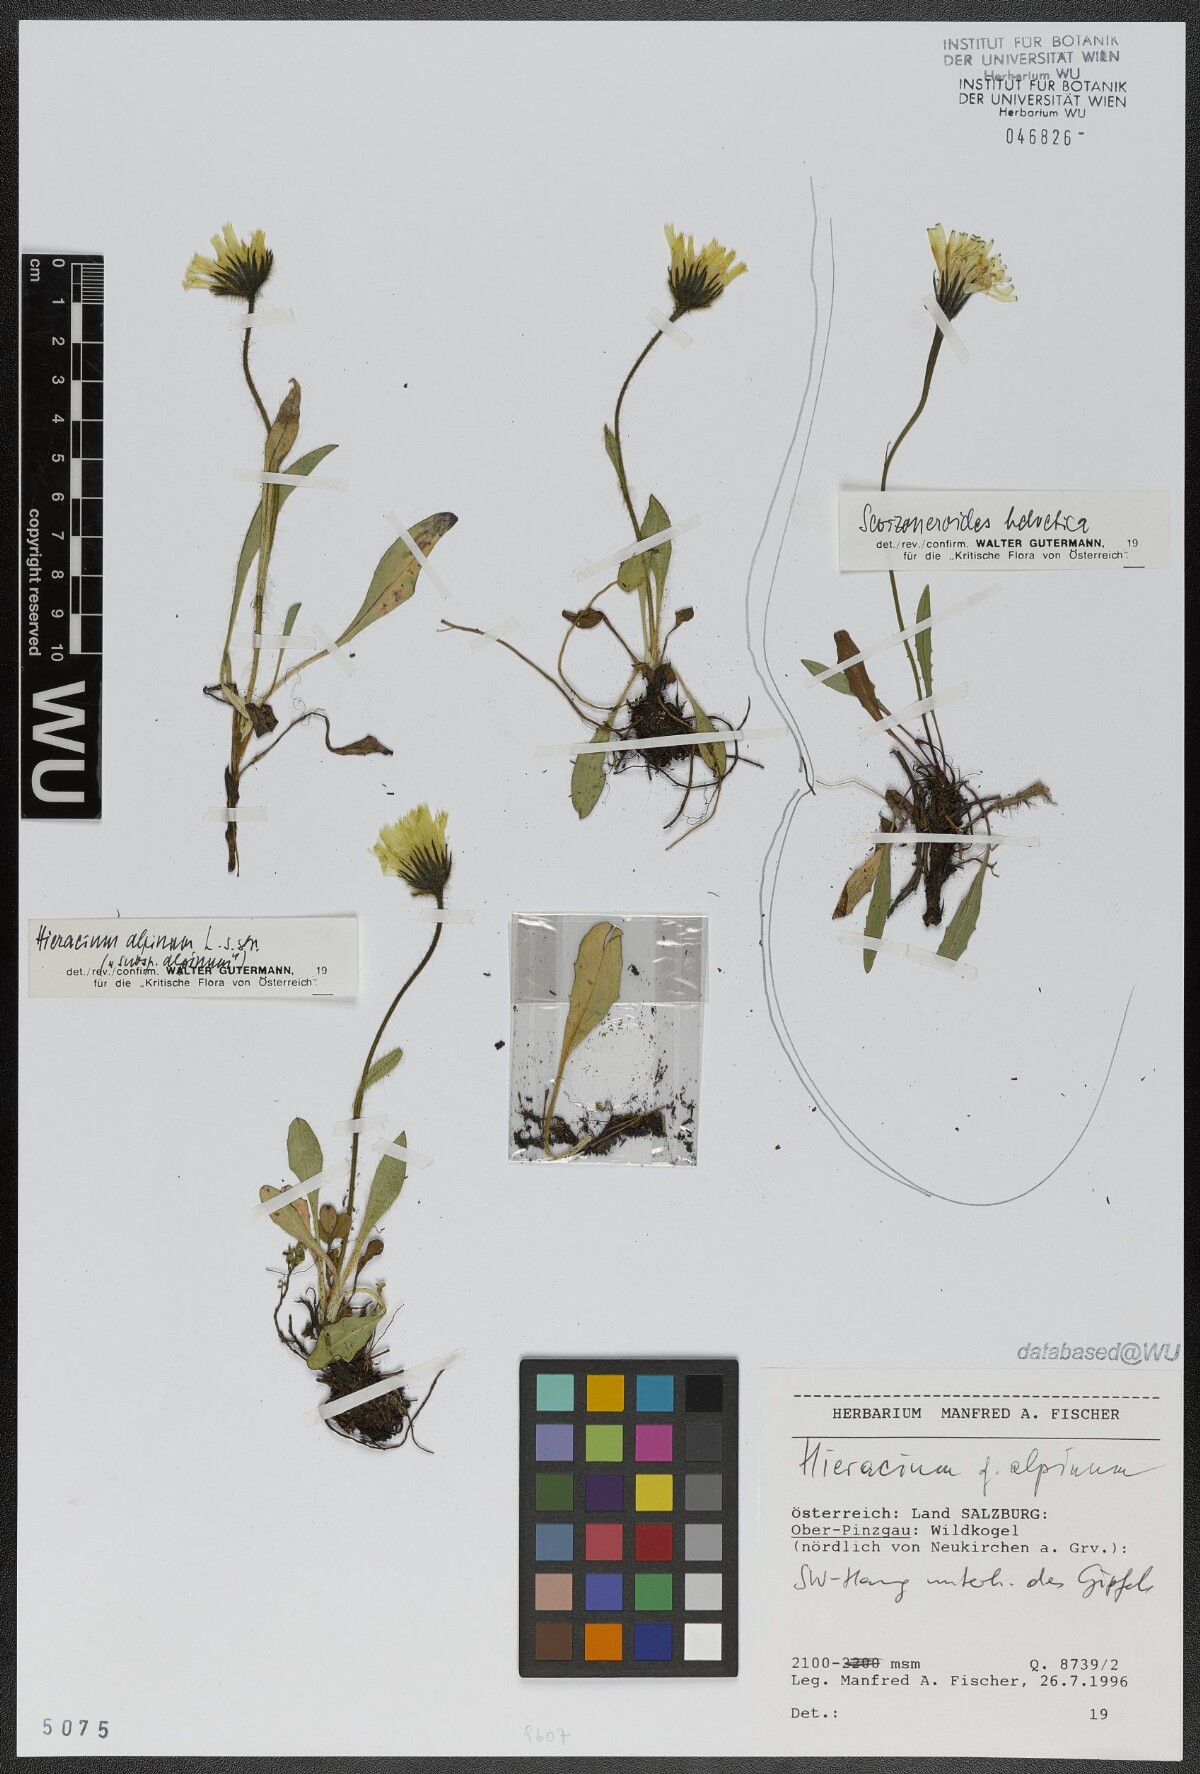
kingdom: Plantae
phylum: Tracheophyta
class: Magnoliopsida
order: Asterales
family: Asteraceae
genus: Hieracium
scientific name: Hieracium alpinum
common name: Alpine hawkweed
